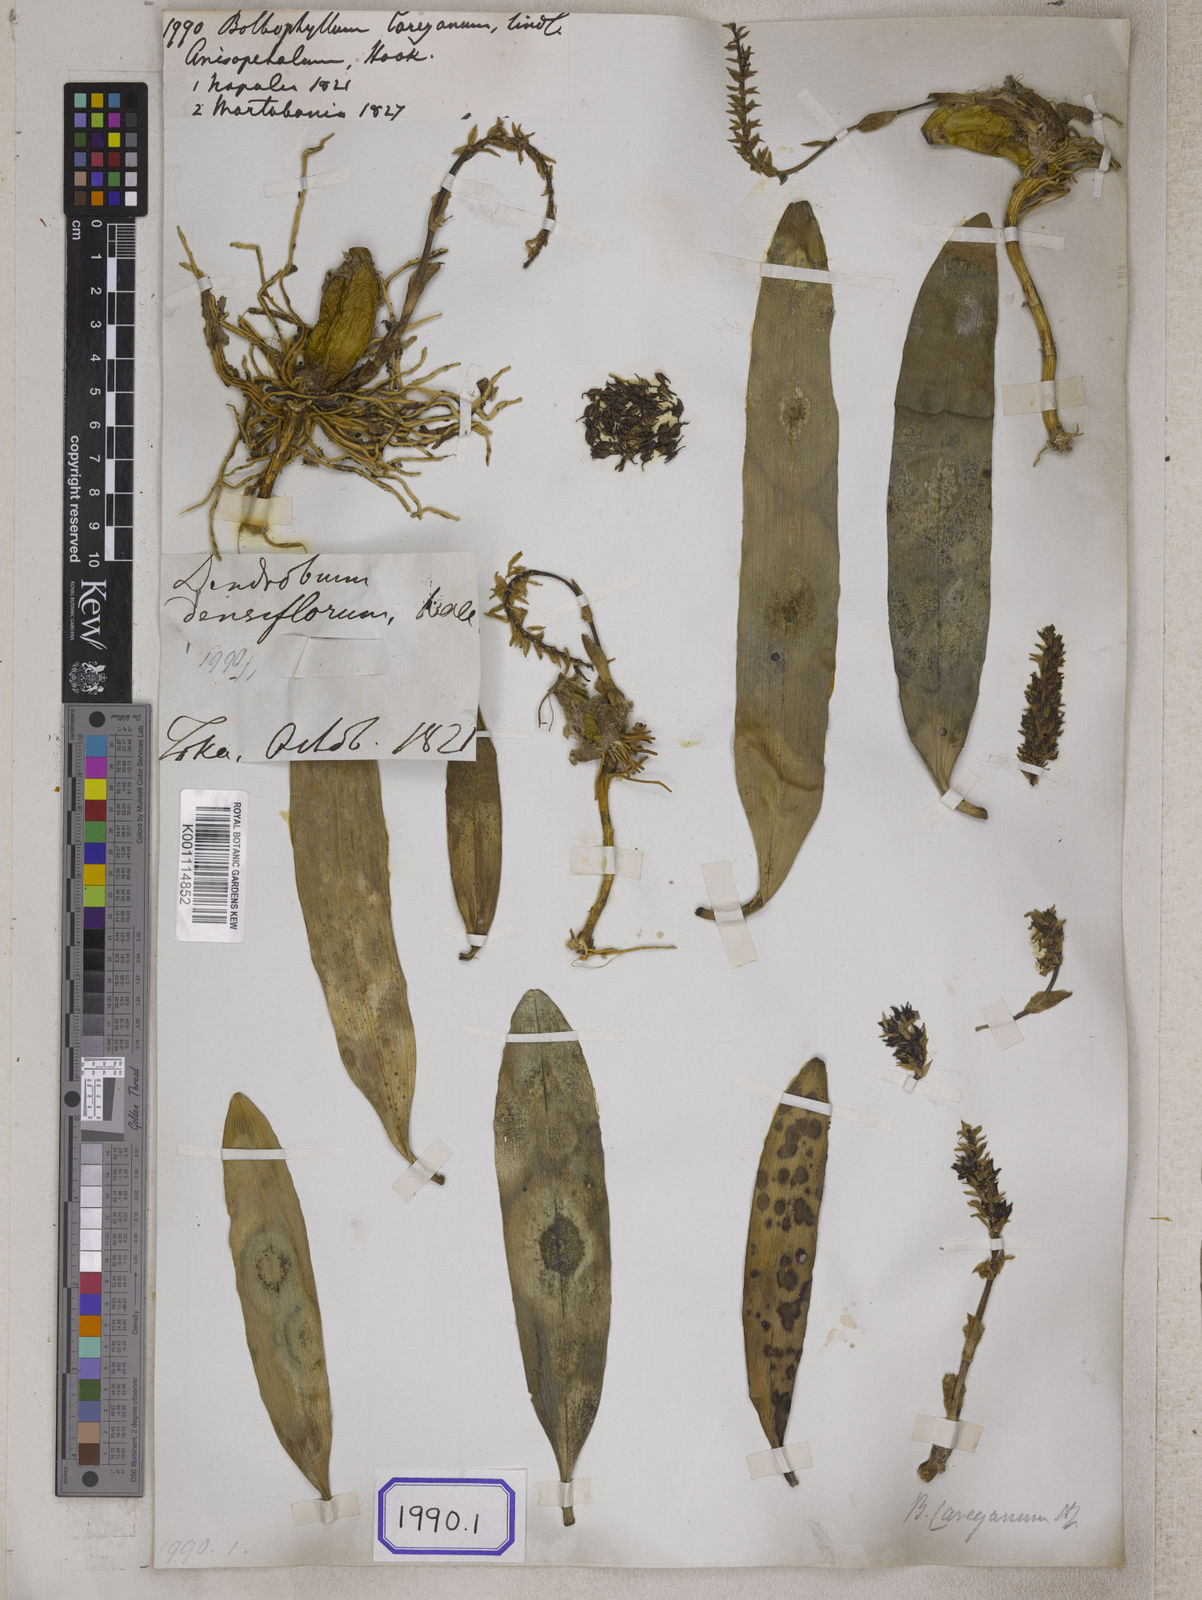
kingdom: Plantae
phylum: Tracheophyta
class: Liliopsida
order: Asparagales
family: Orchidaceae
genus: Bulbophyllum
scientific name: Bulbophyllum
